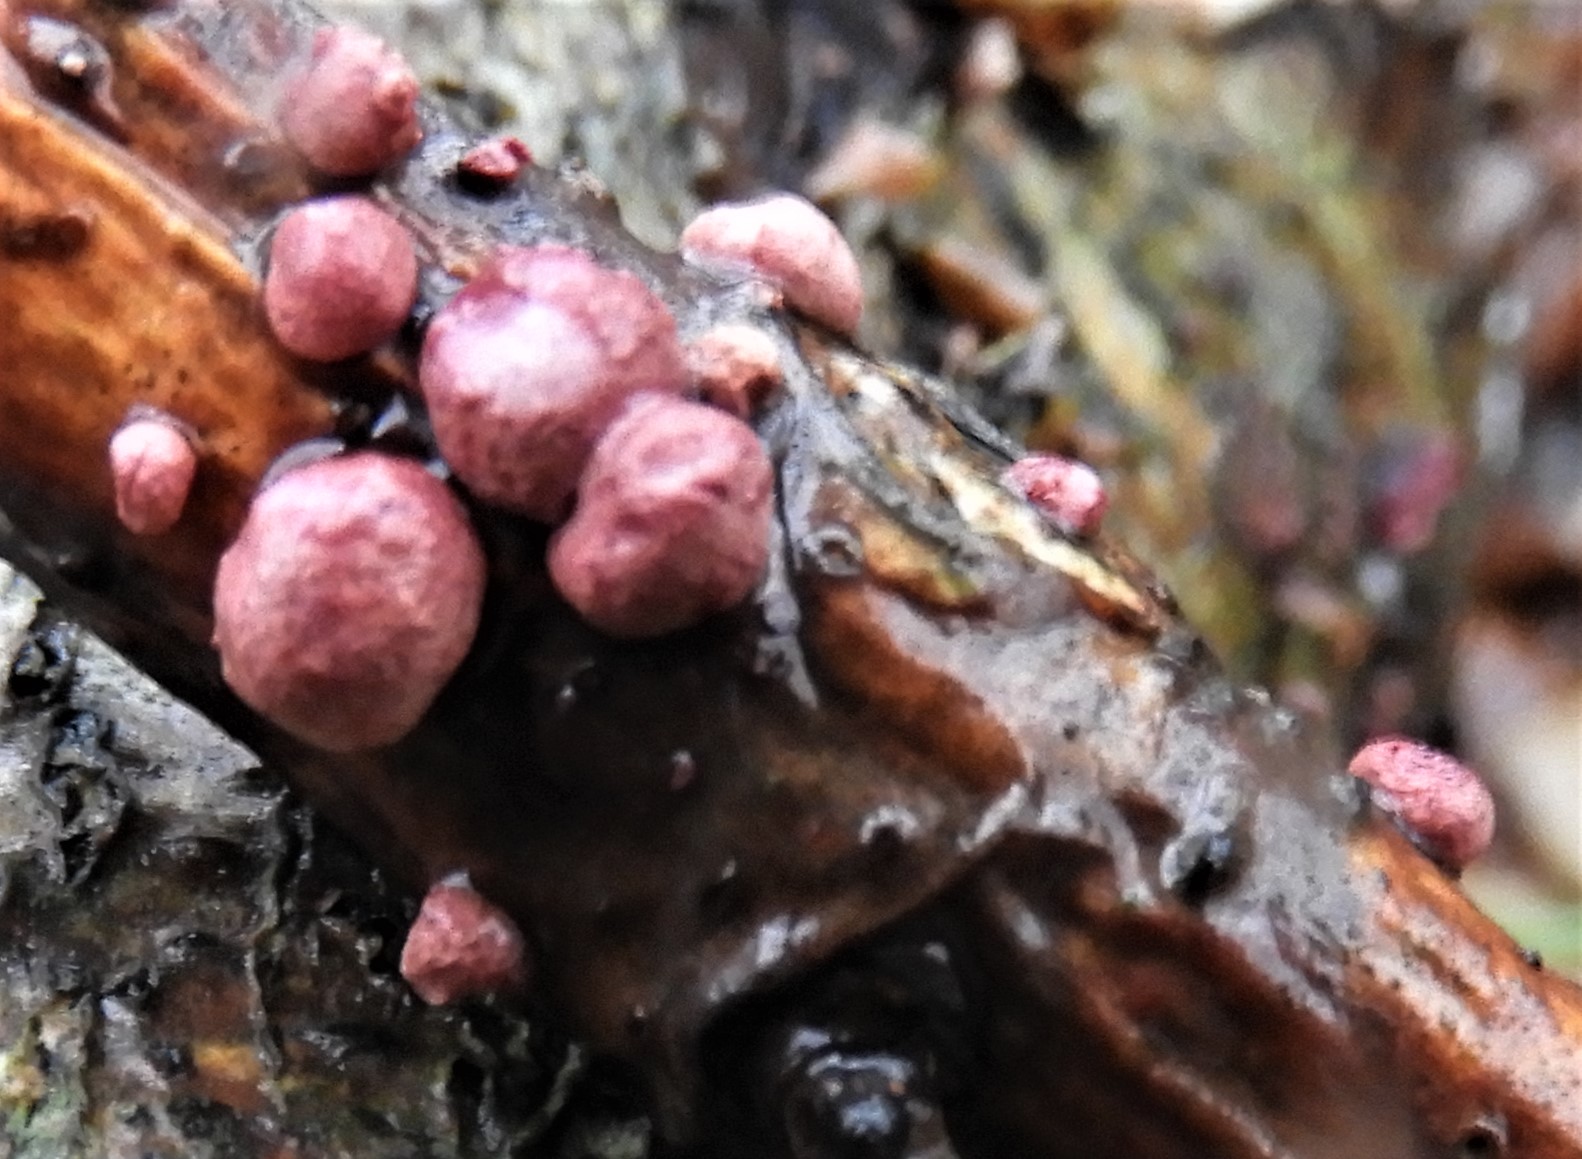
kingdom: Fungi
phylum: Ascomycota
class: Sordariomycetes
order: Hypocreales
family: Hypocreaceae
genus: Trichoderma
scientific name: Trichoderma europaeum
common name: rosabrun kødkerne
